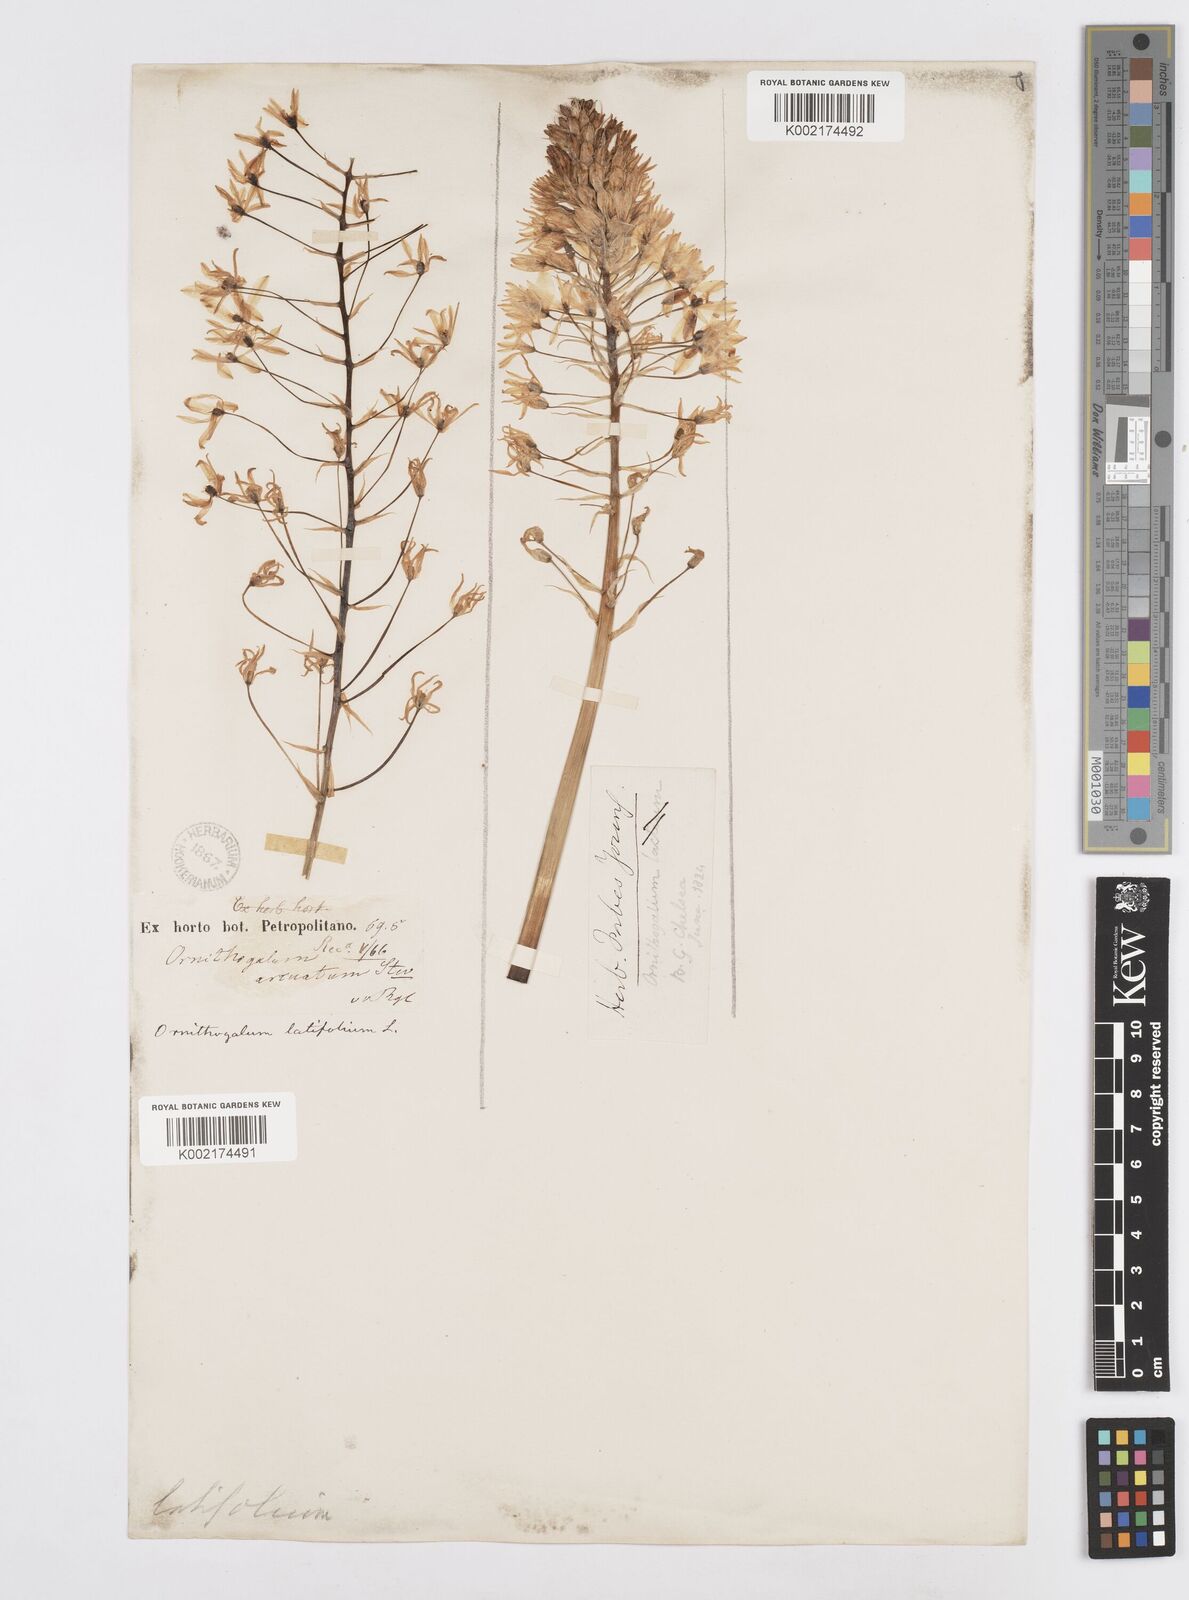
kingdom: Plantae
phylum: Tracheophyta
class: Liliopsida
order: Asparagales
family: Asparagaceae
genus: Ornithogalum
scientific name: Ornithogalum narbonense
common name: Bath-asparagus
